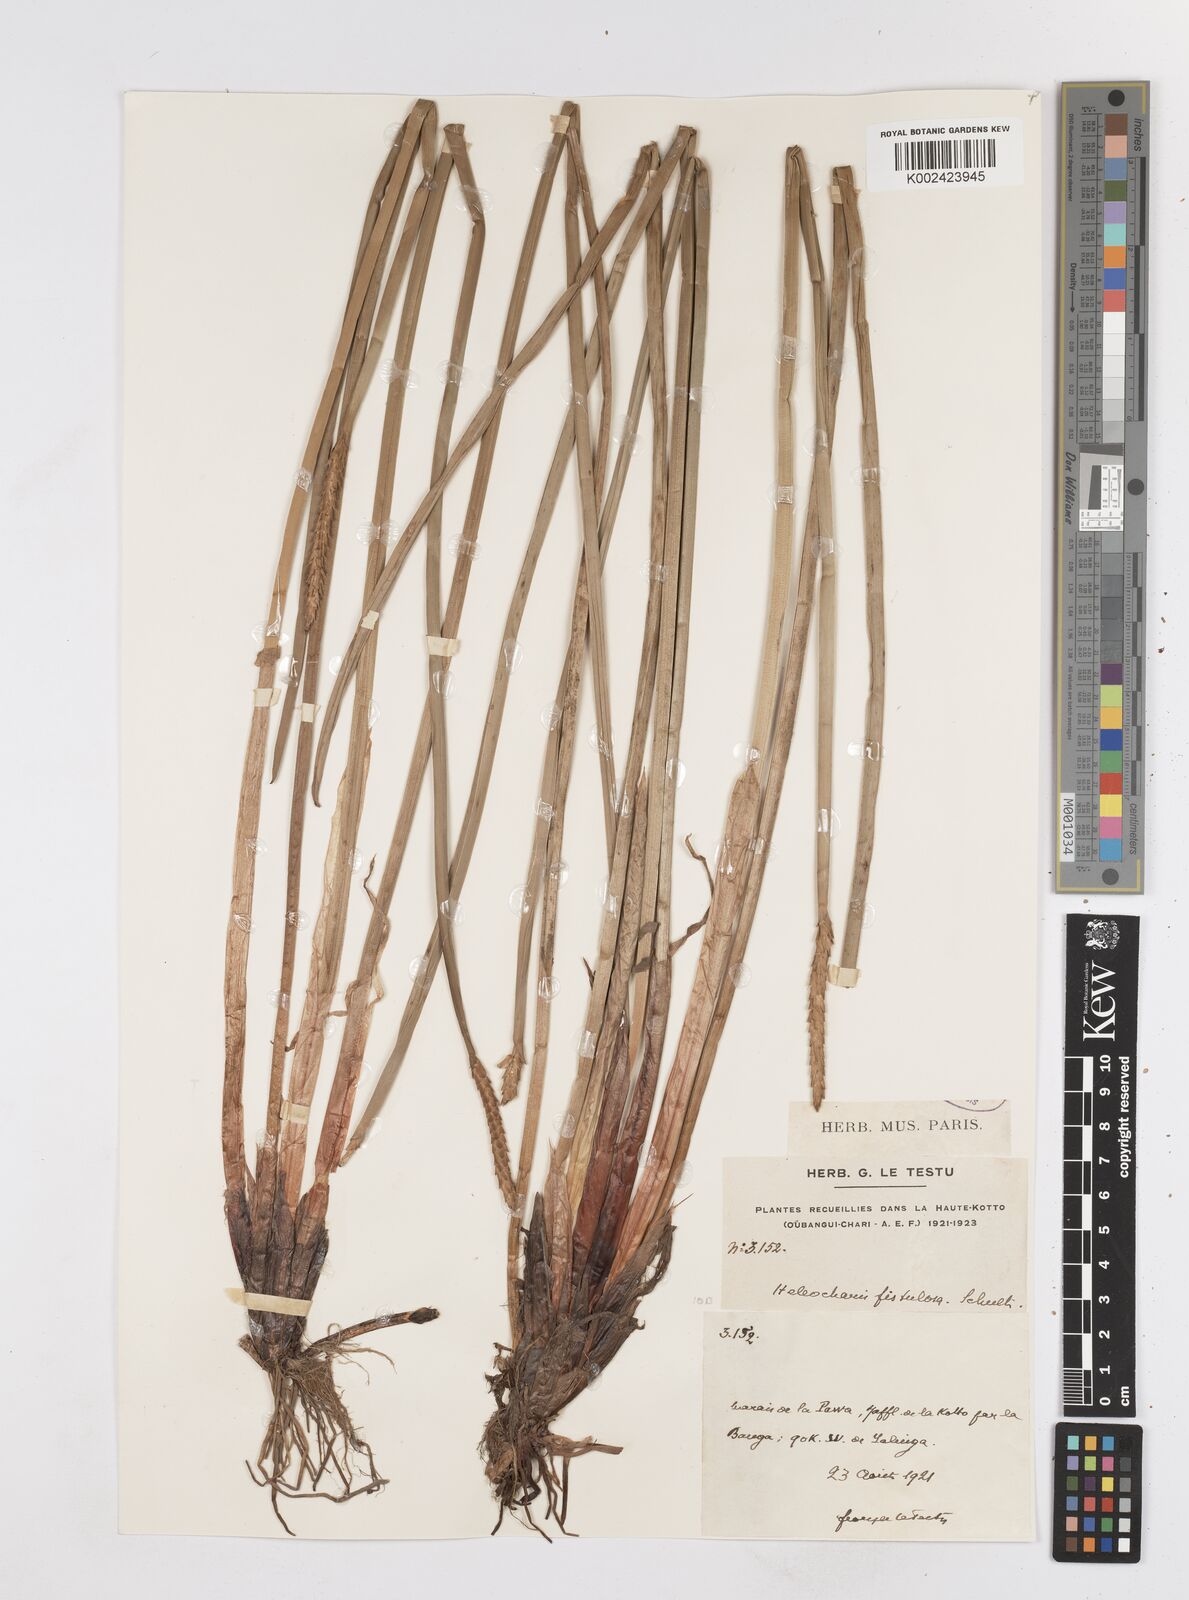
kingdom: Plantae
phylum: Tracheophyta
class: Liliopsida
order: Poales
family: Cyperaceae
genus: Eleocharis
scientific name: Eleocharis acutangula
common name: Acute spikerush
